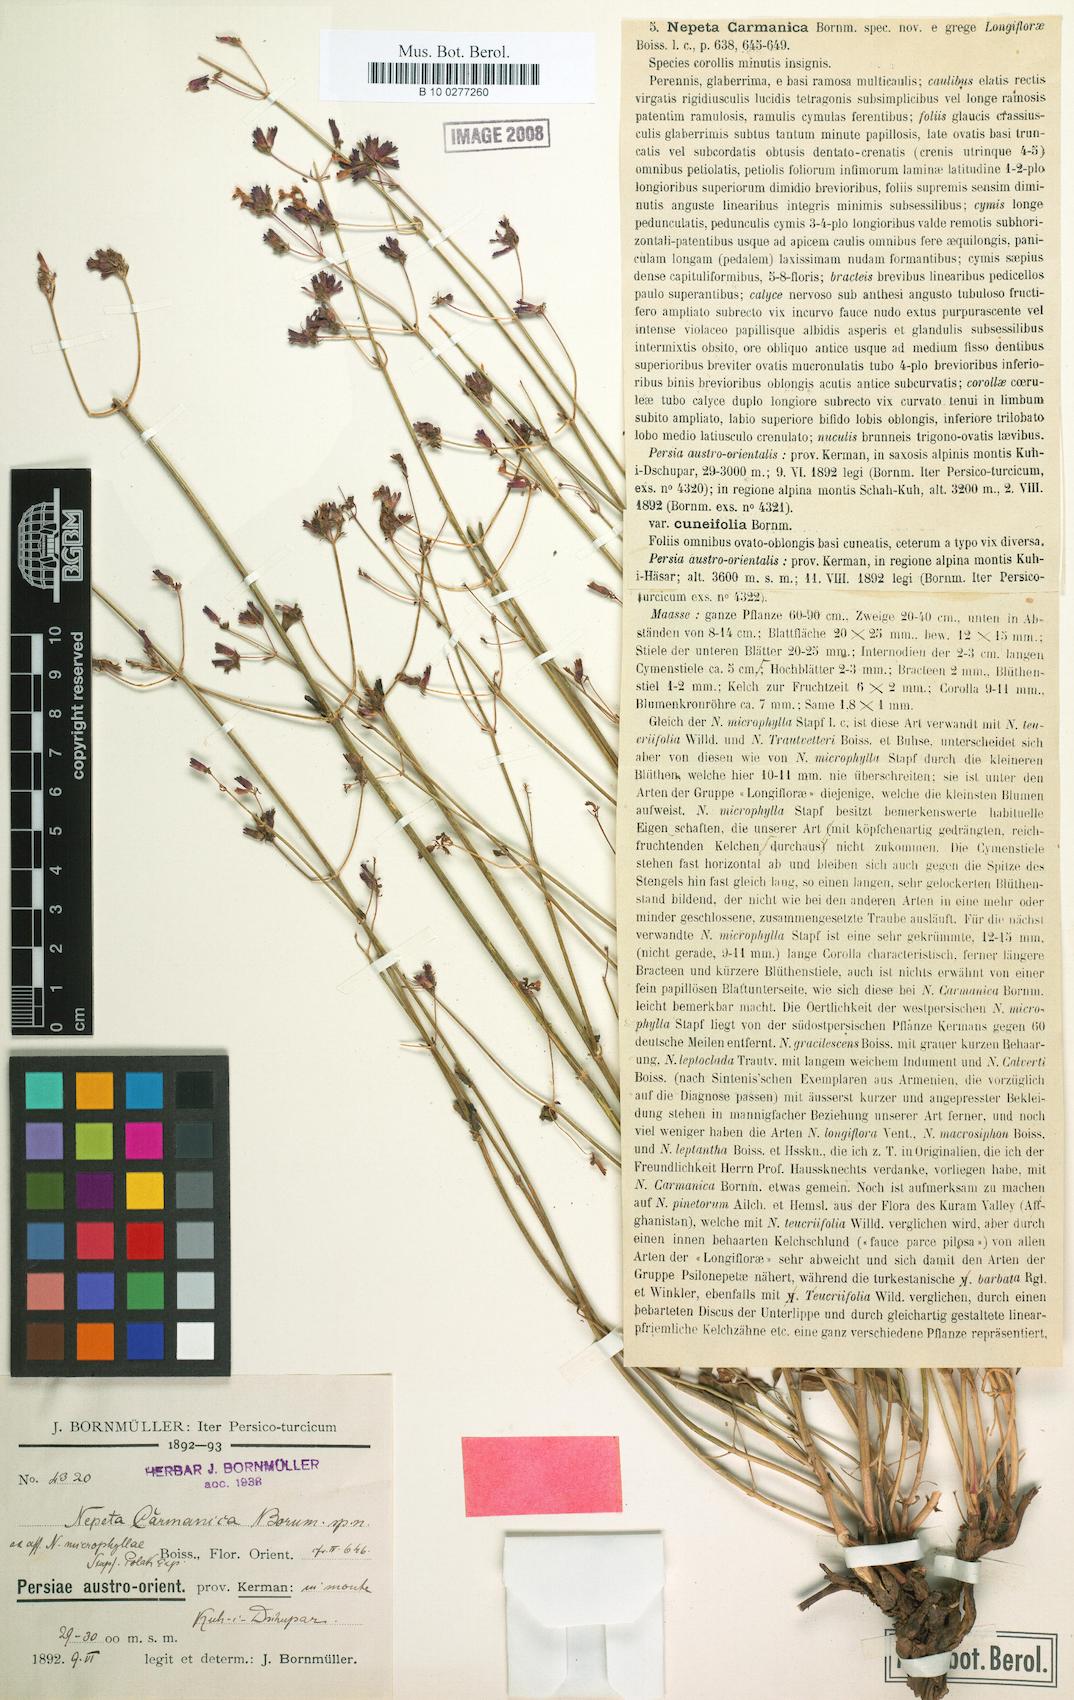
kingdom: Plantae
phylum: Tracheophyta
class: Magnoliopsida
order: Lamiales
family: Lamiaceae
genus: Nepeta
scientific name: Nepeta teucriifolia
